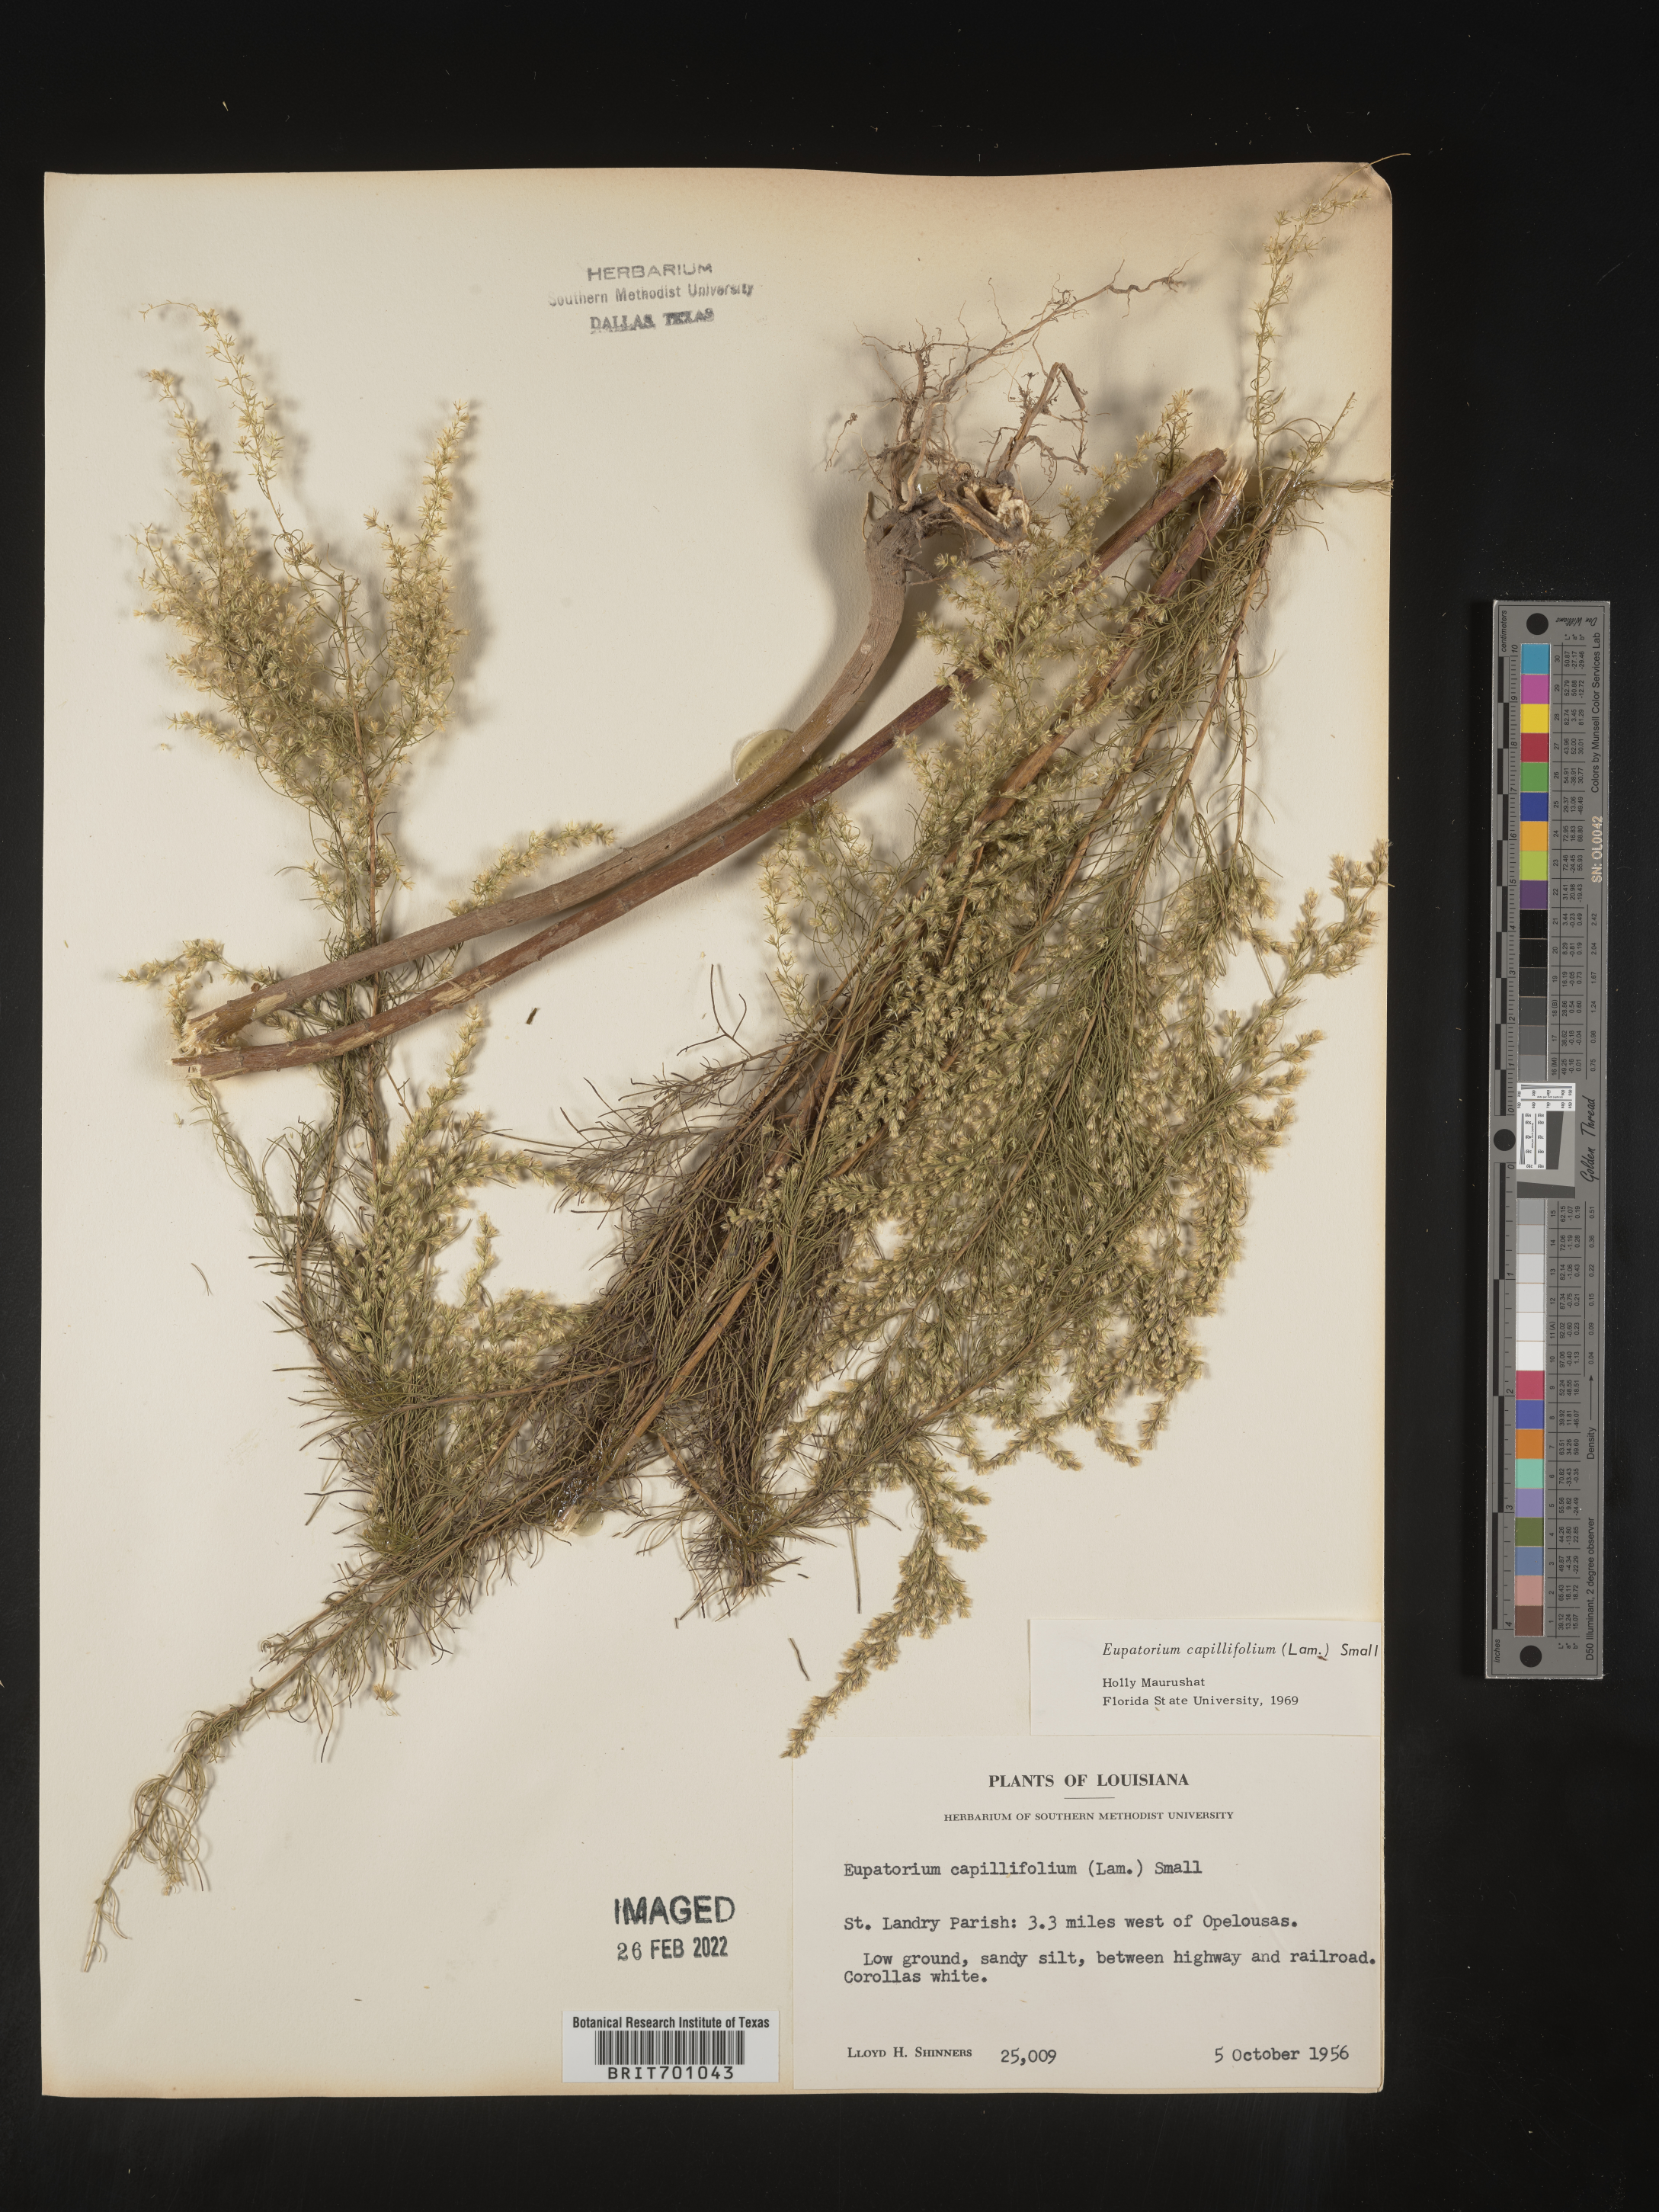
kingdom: Plantae
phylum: Tracheophyta
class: Magnoliopsida
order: Asterales
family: Asteraceae
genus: Eupatorium
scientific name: Eupatorium capillifolium
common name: Dog-fennel
